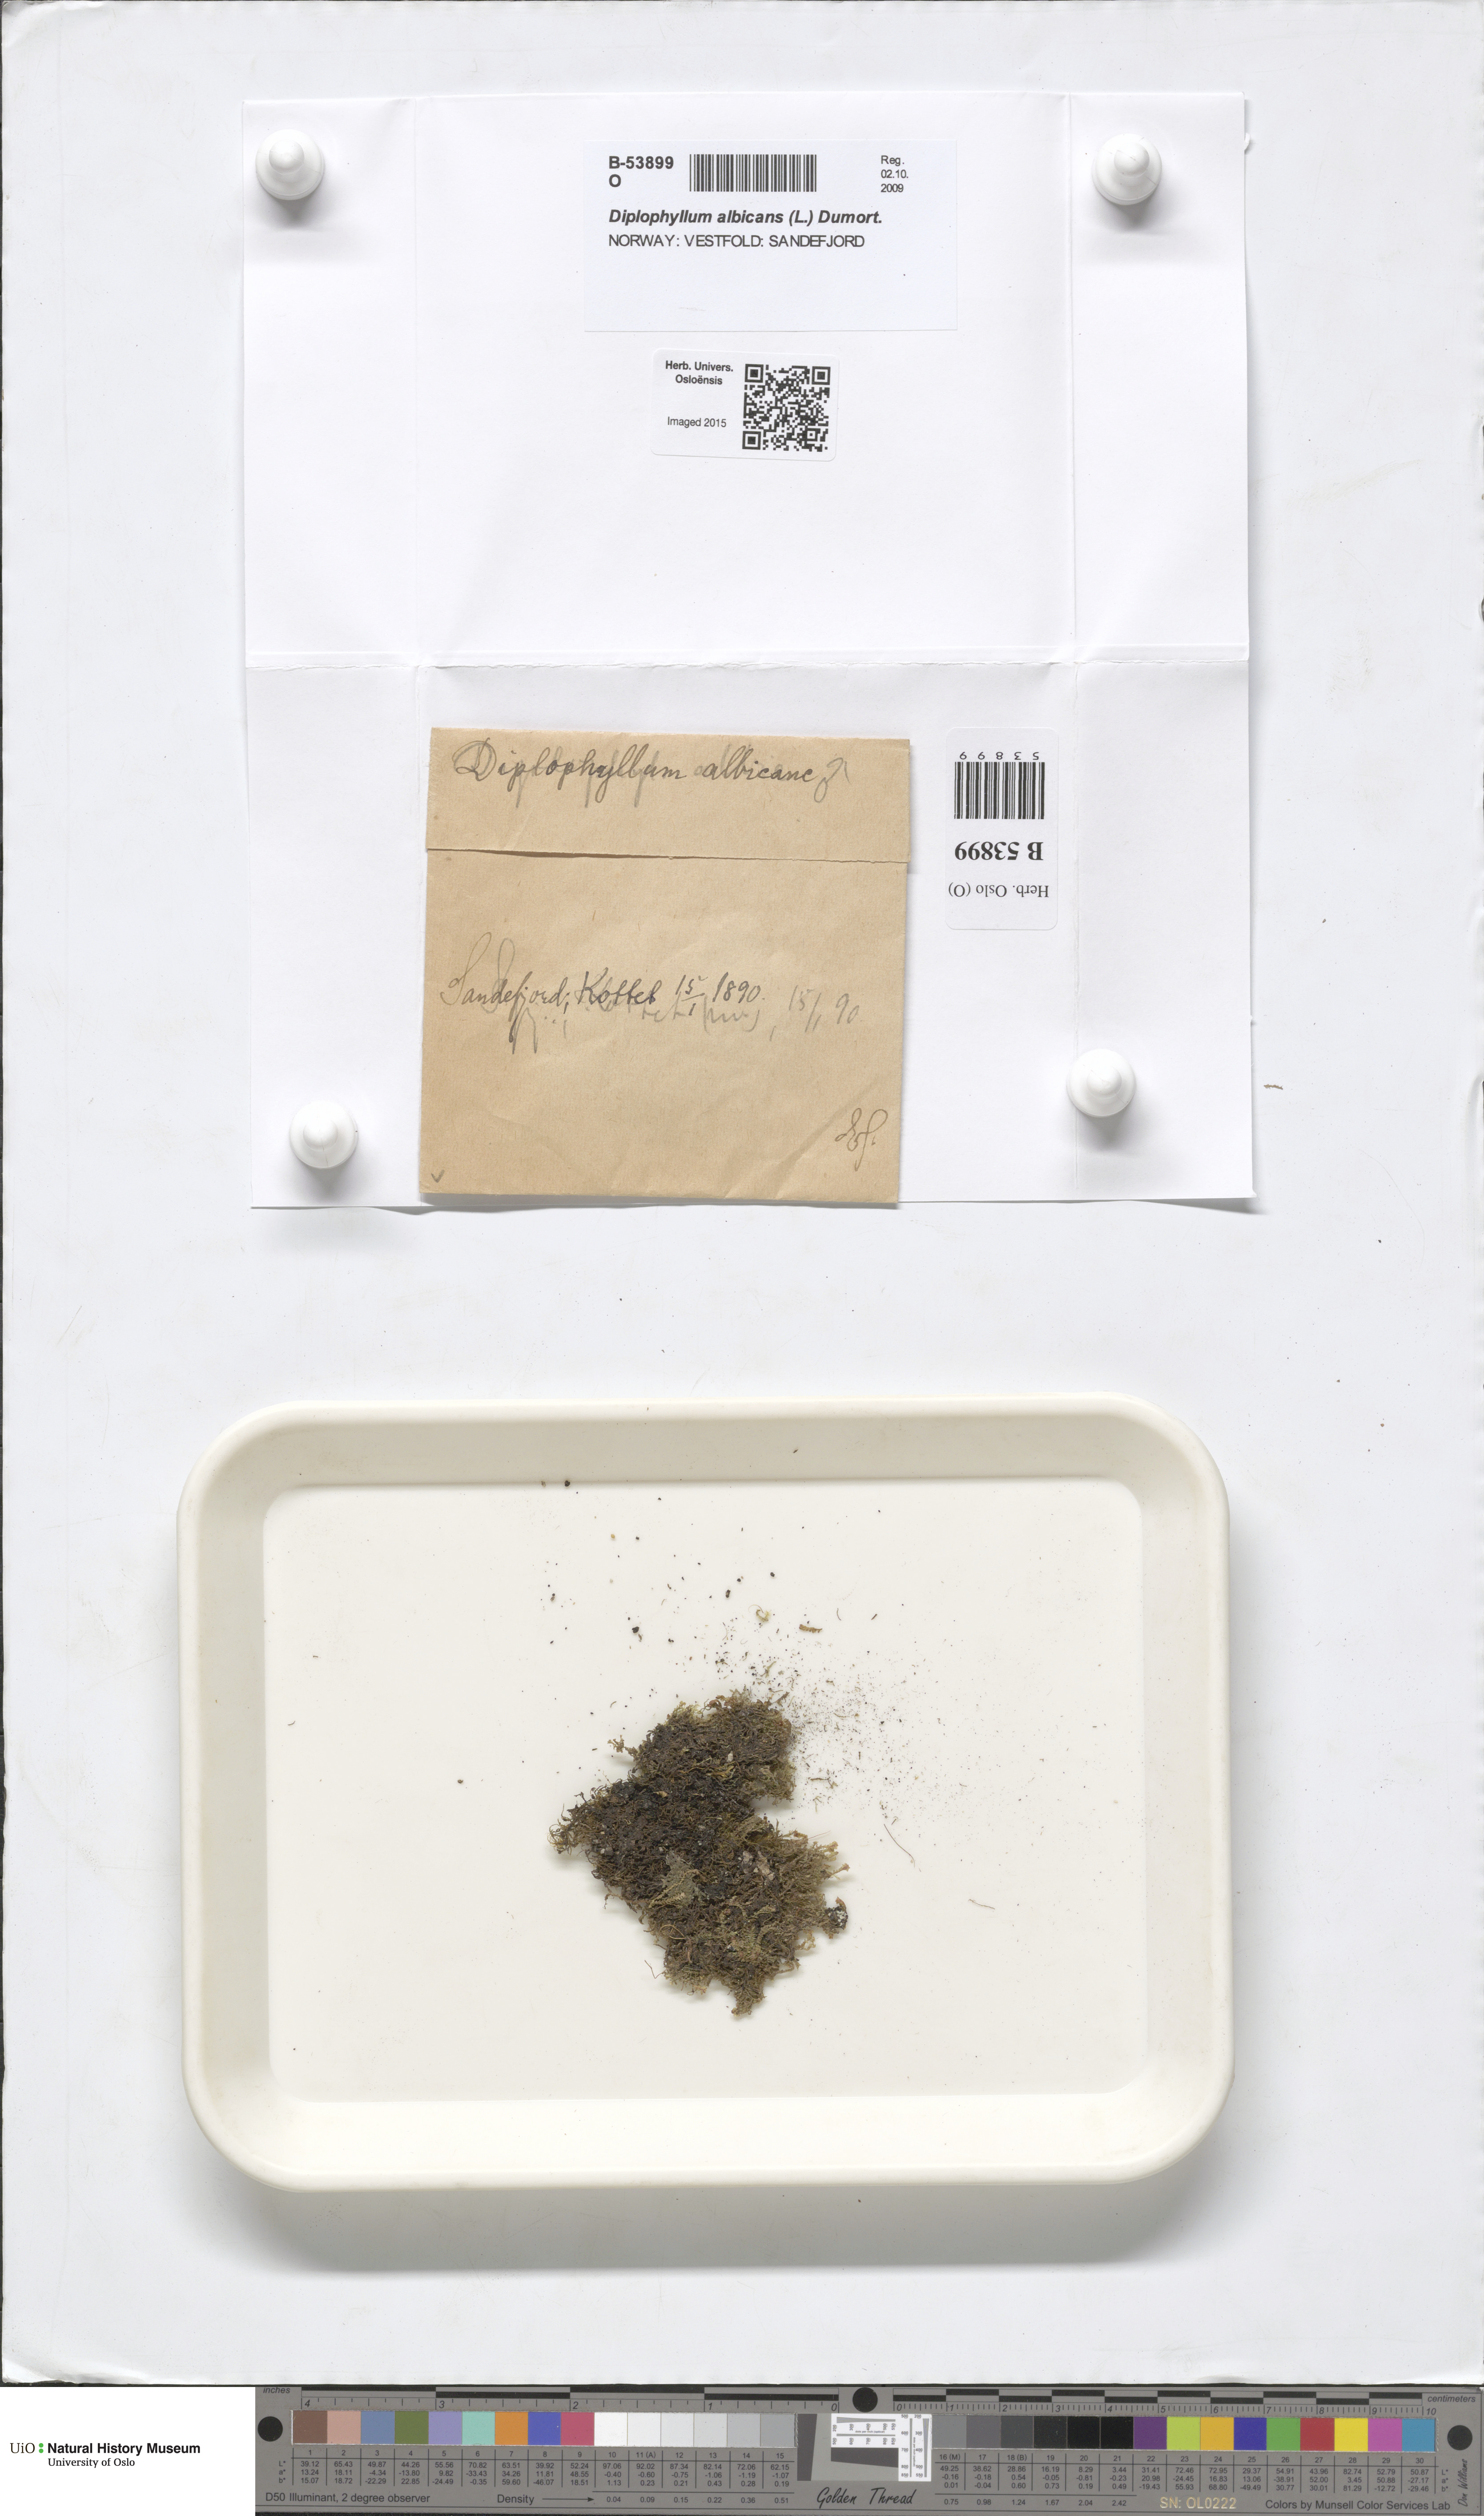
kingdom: Plantae
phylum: Marchantiophyta
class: Jungermanniopsida
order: Jungermanniales
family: Scapaniaceae
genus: Diplophyllum
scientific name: Diplophyllum albicans
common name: White earwort
